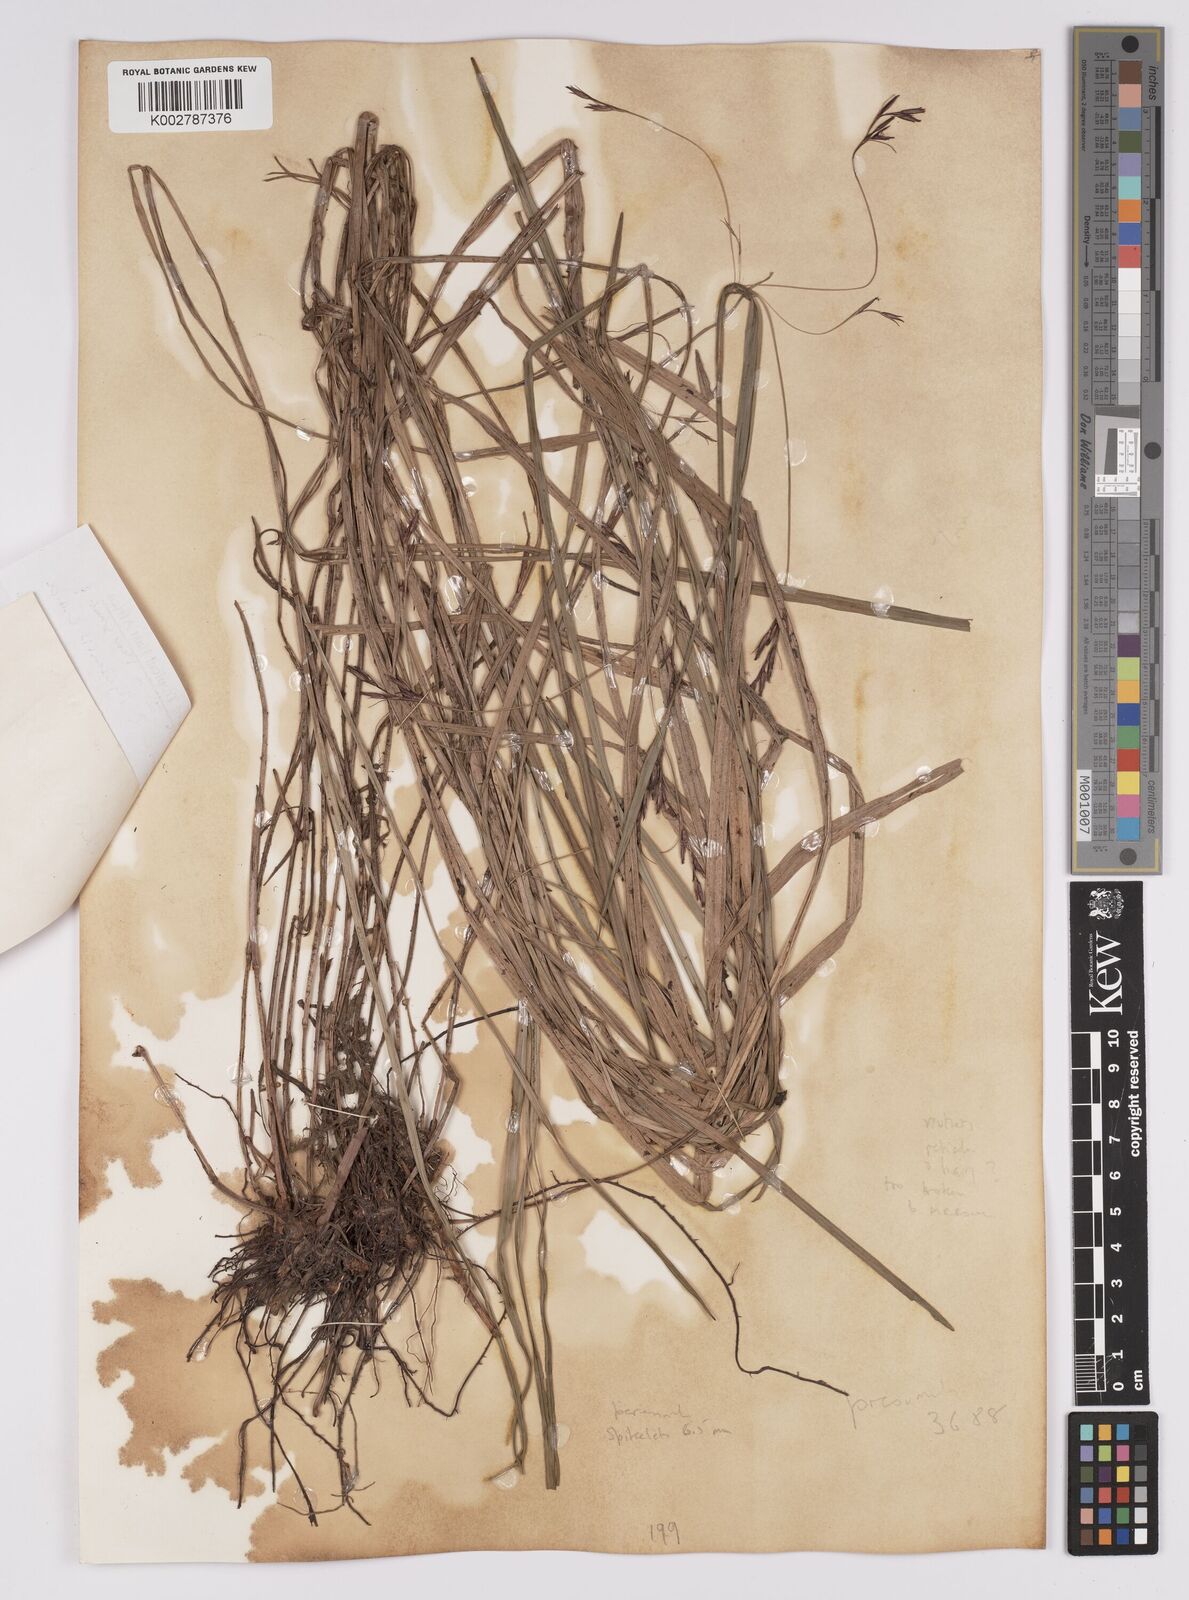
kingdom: Plantae
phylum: Tracheophyta
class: Liliopsida
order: Poales
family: Cyperaceae
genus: Scleria
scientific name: Scleria nyasensis
